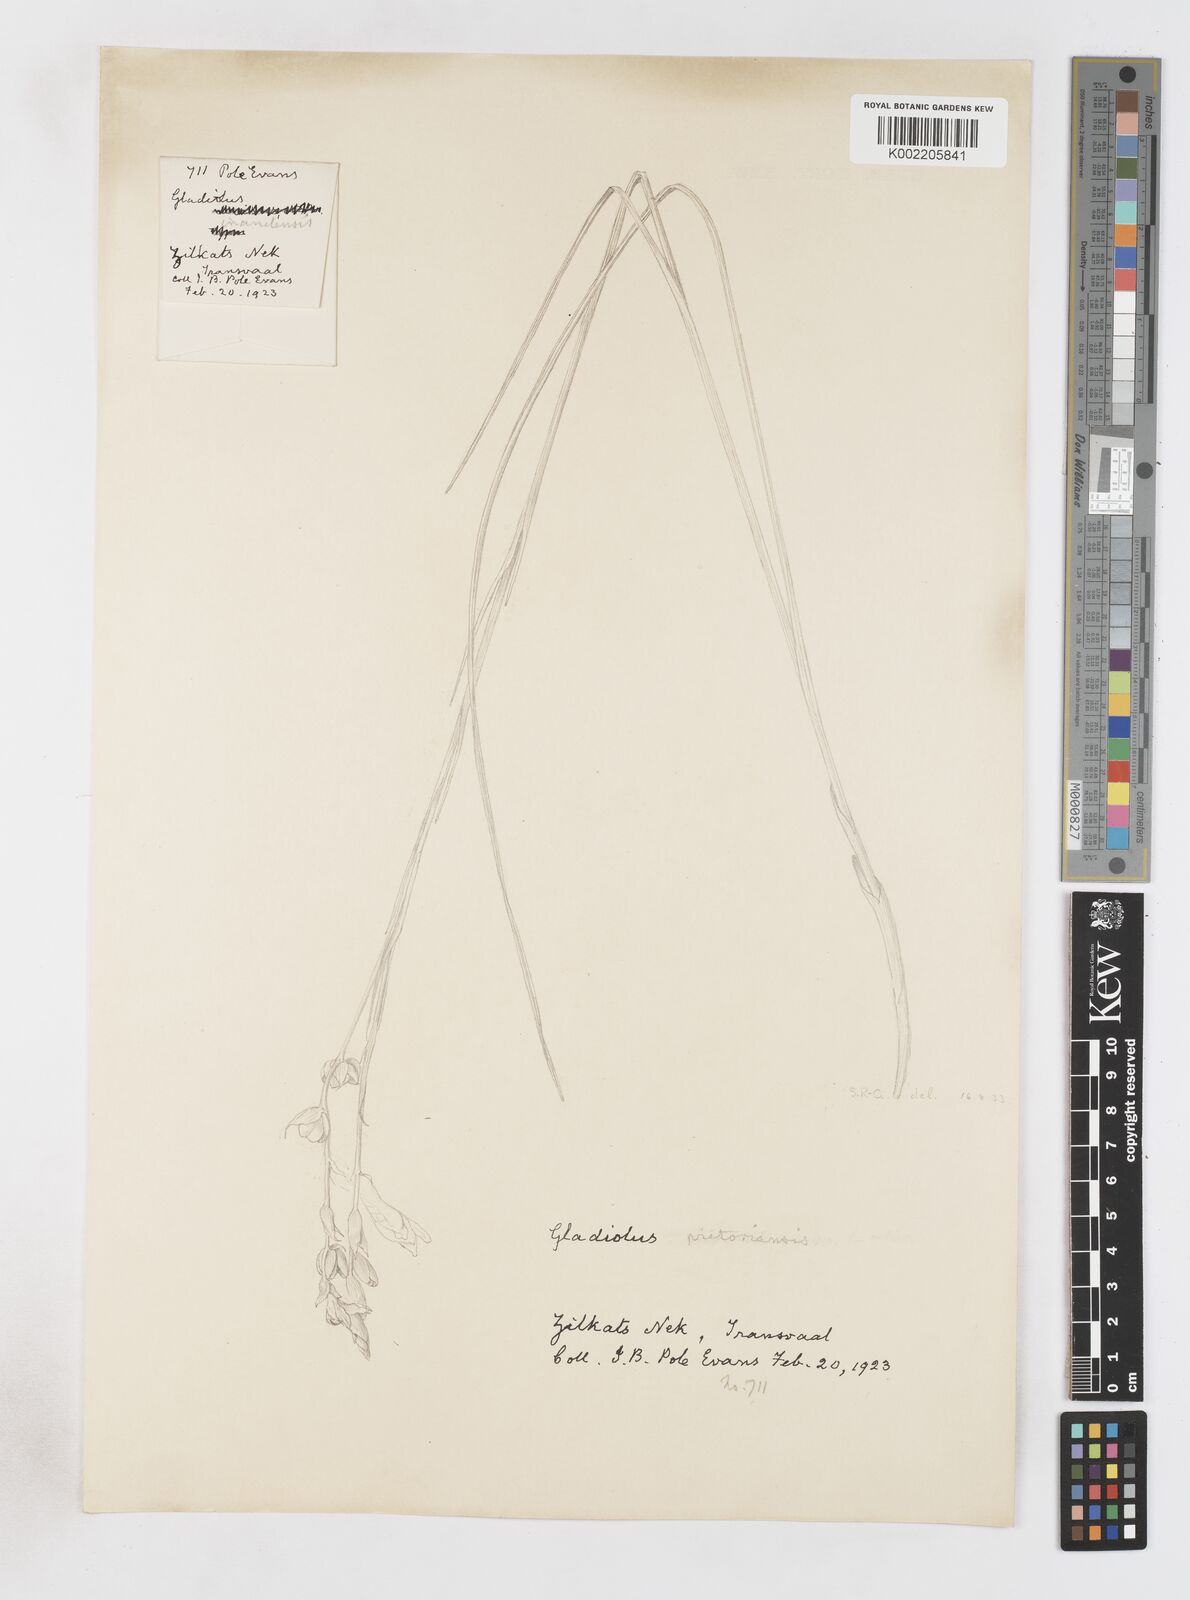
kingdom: Plantae
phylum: Tracheophyta
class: Liliopsida
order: Asparagales
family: Iridaceae
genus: Gladiolus
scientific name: Gladiolus pretoriensis
